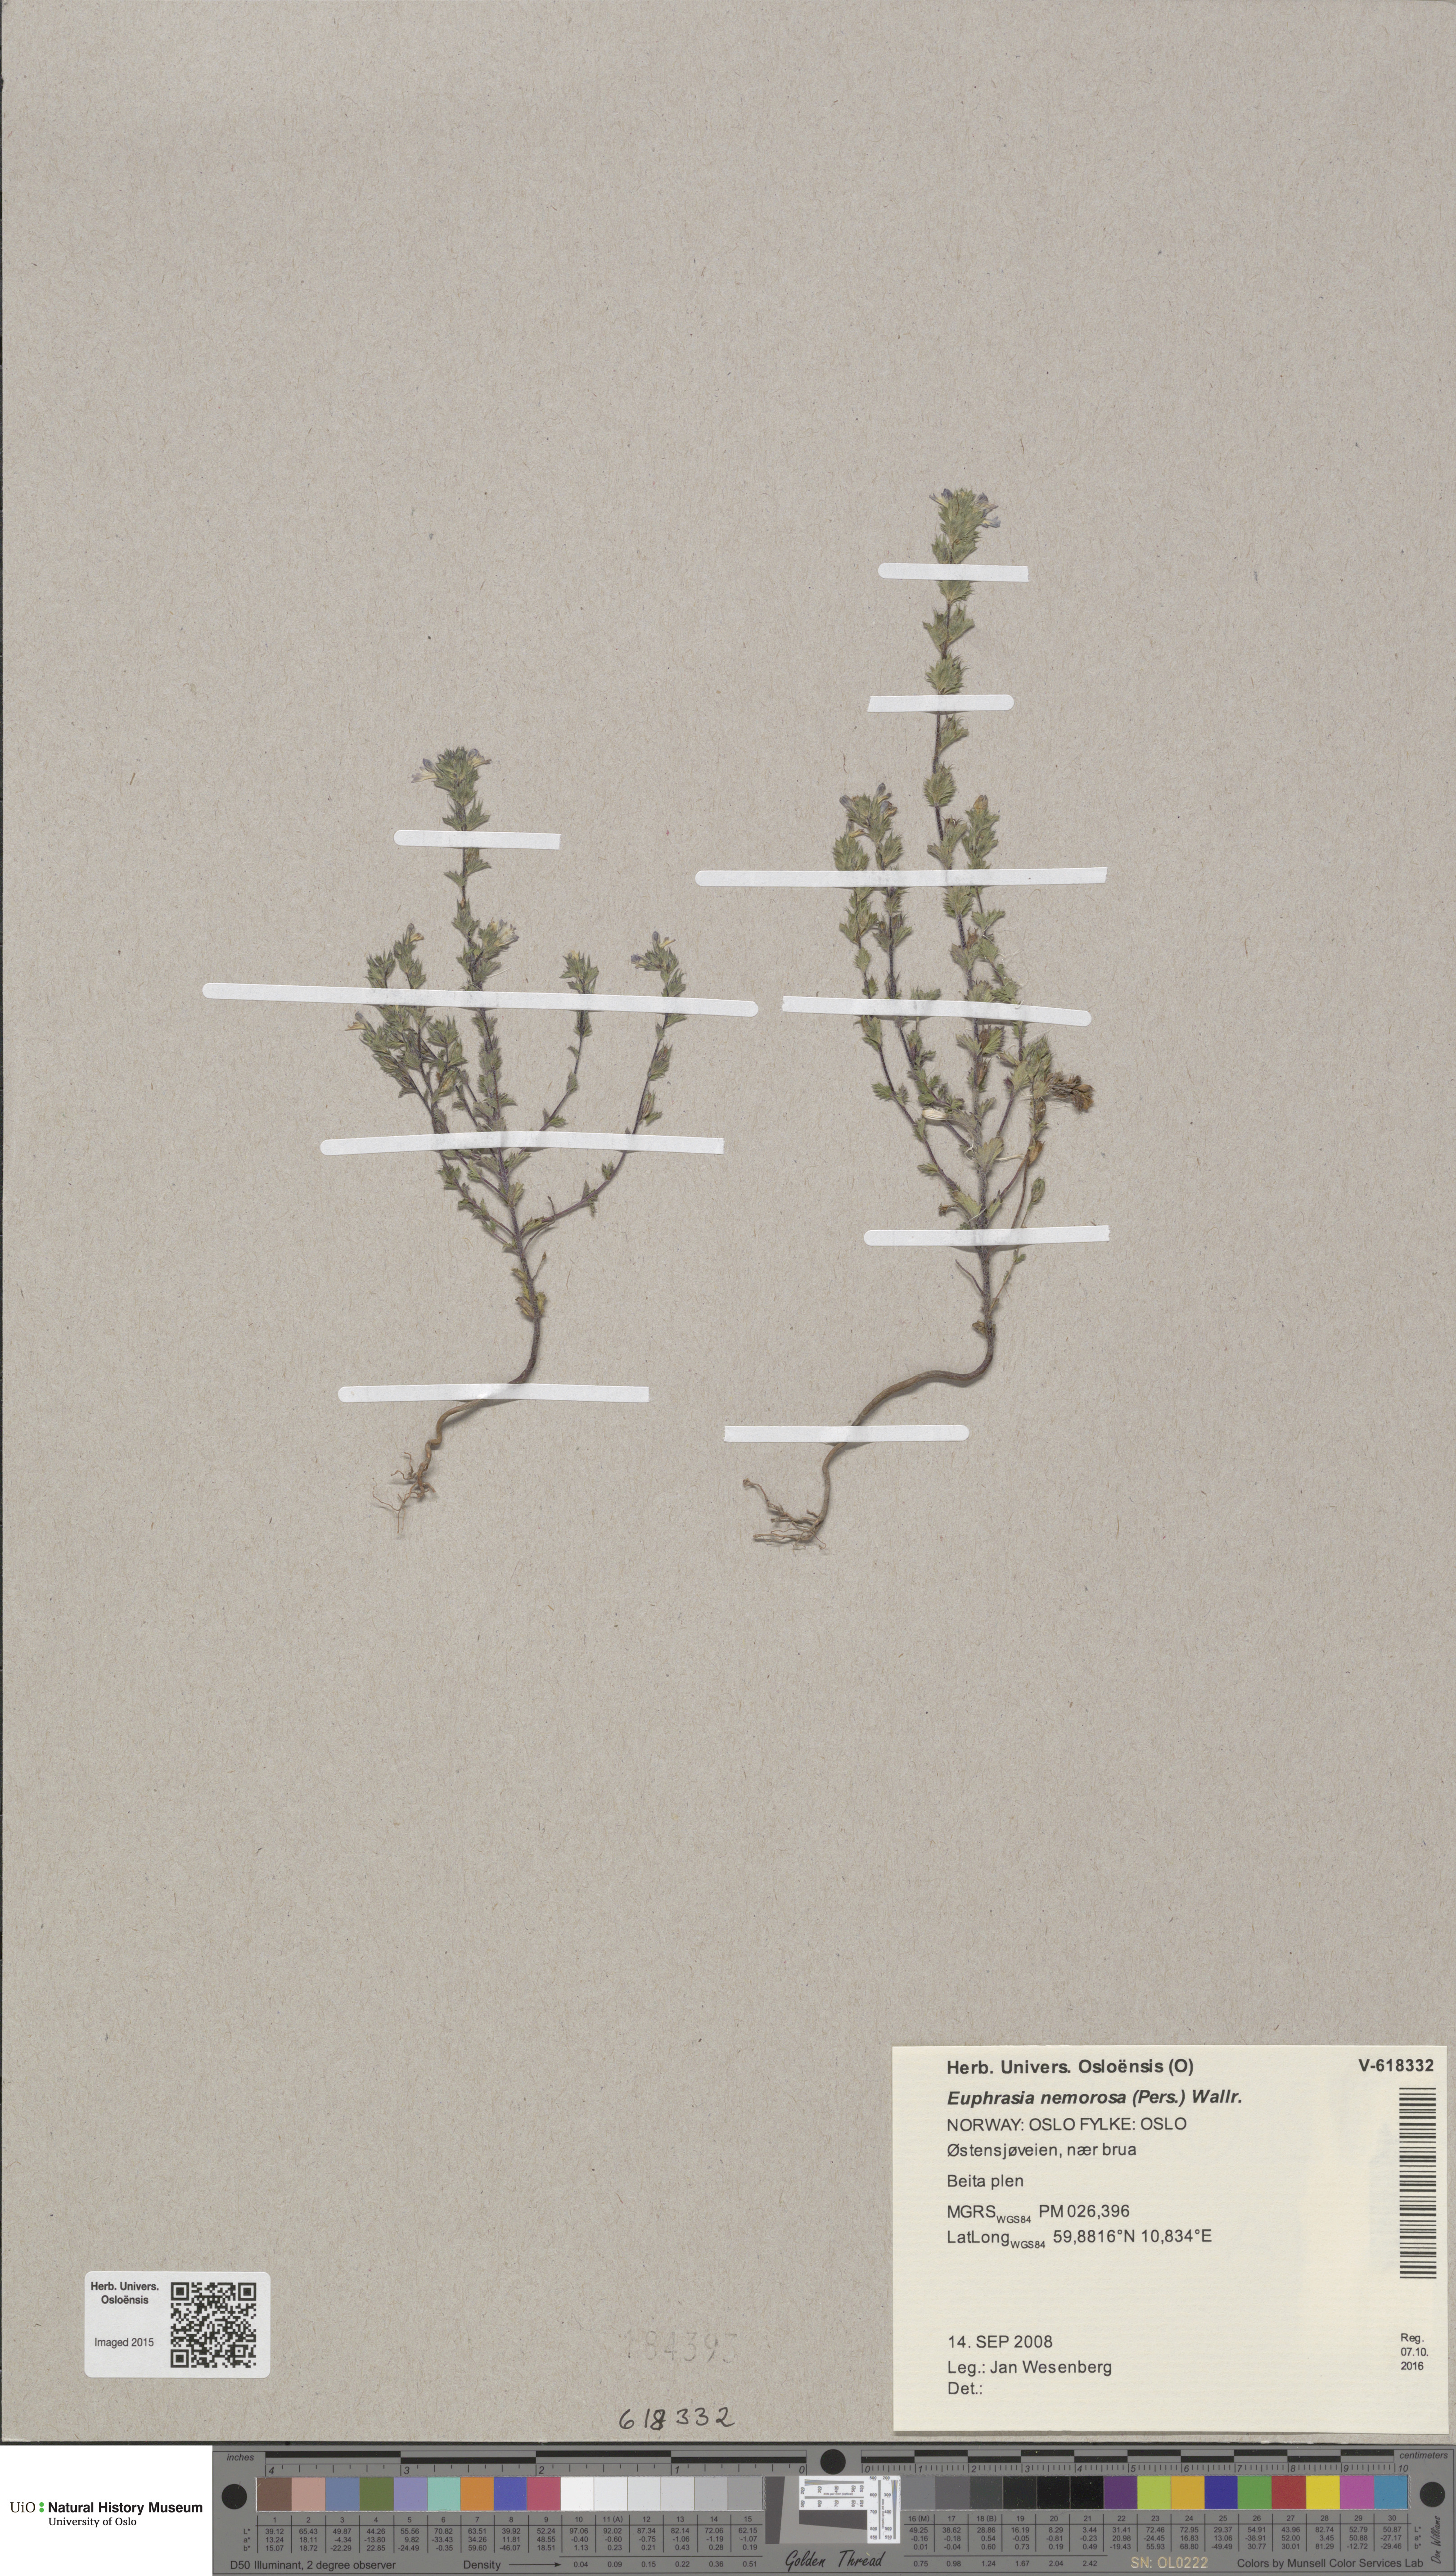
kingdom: Plantae
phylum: Tracheophyta
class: Magnoliopsida
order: Lamiales
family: Orobanchaceae
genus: Euphrasia
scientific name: Euphrasia nemorosa
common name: Common eyebright
